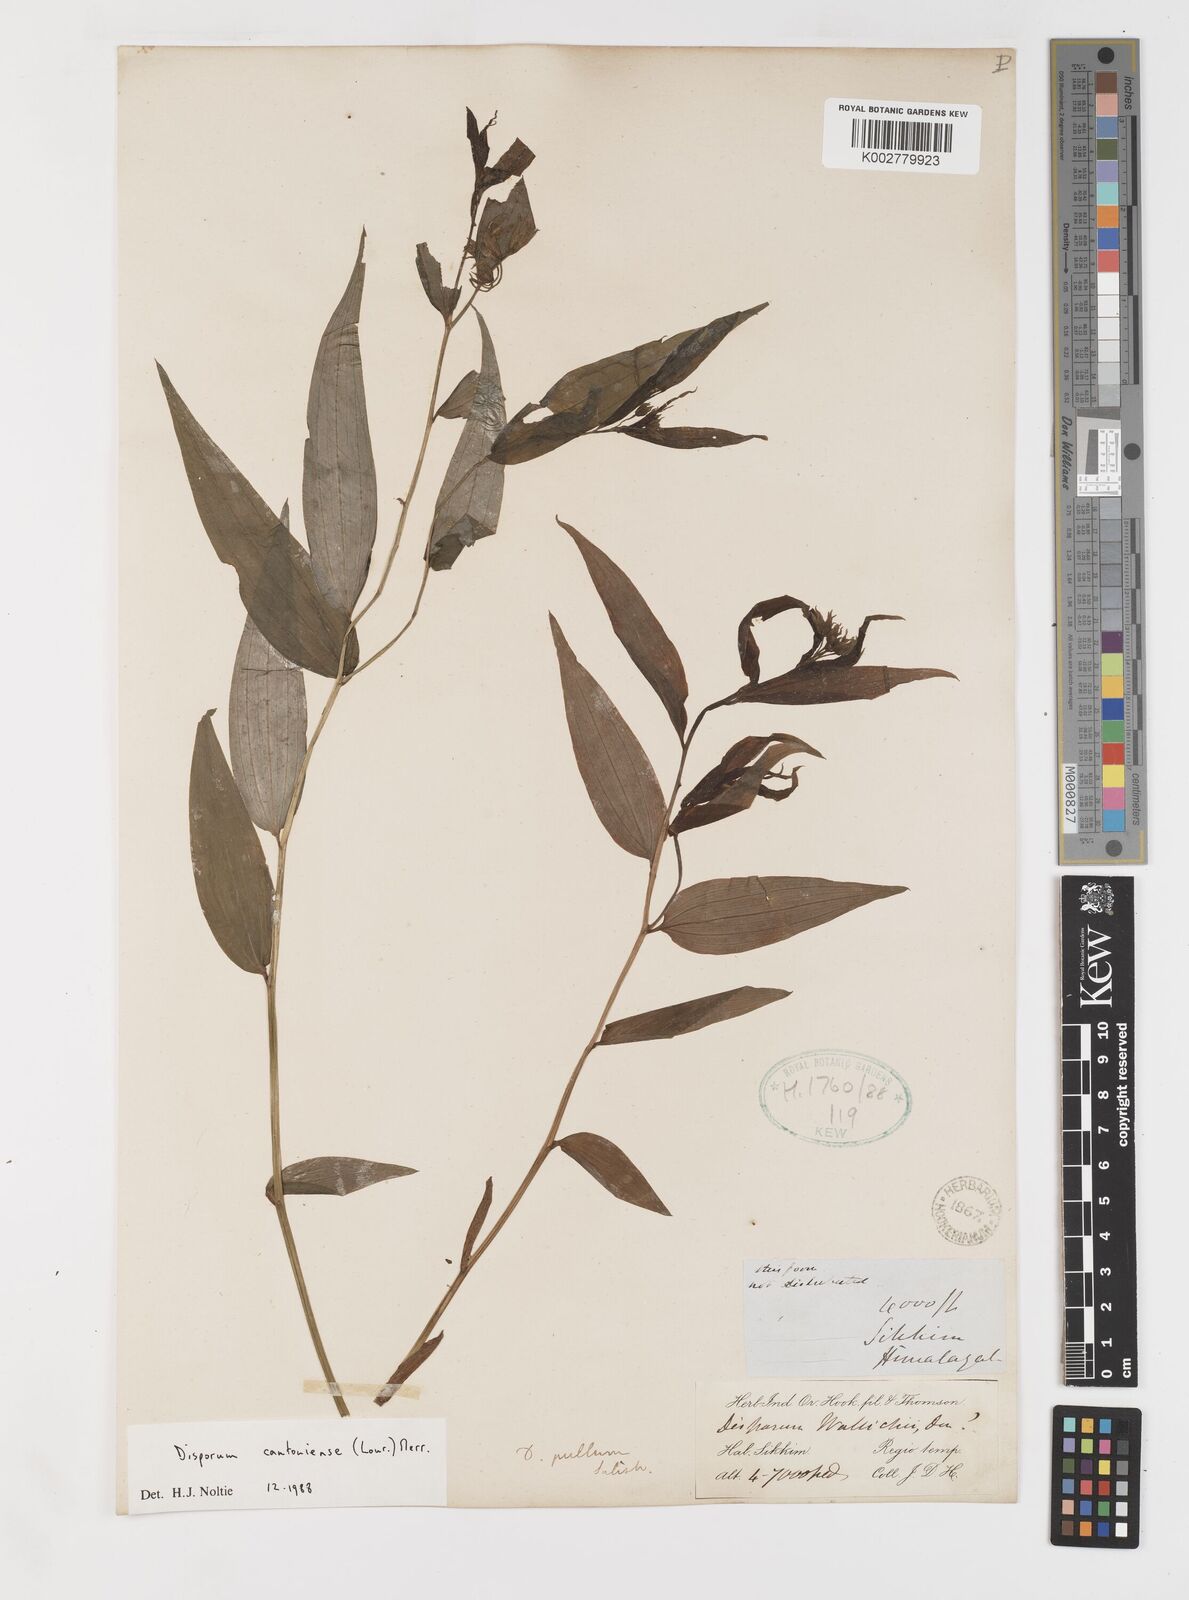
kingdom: Plantae
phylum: Tracheophyta
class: Liliopsida
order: Liliales
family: Colchicaceae
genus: Disporum
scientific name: Disporum cantoniense
